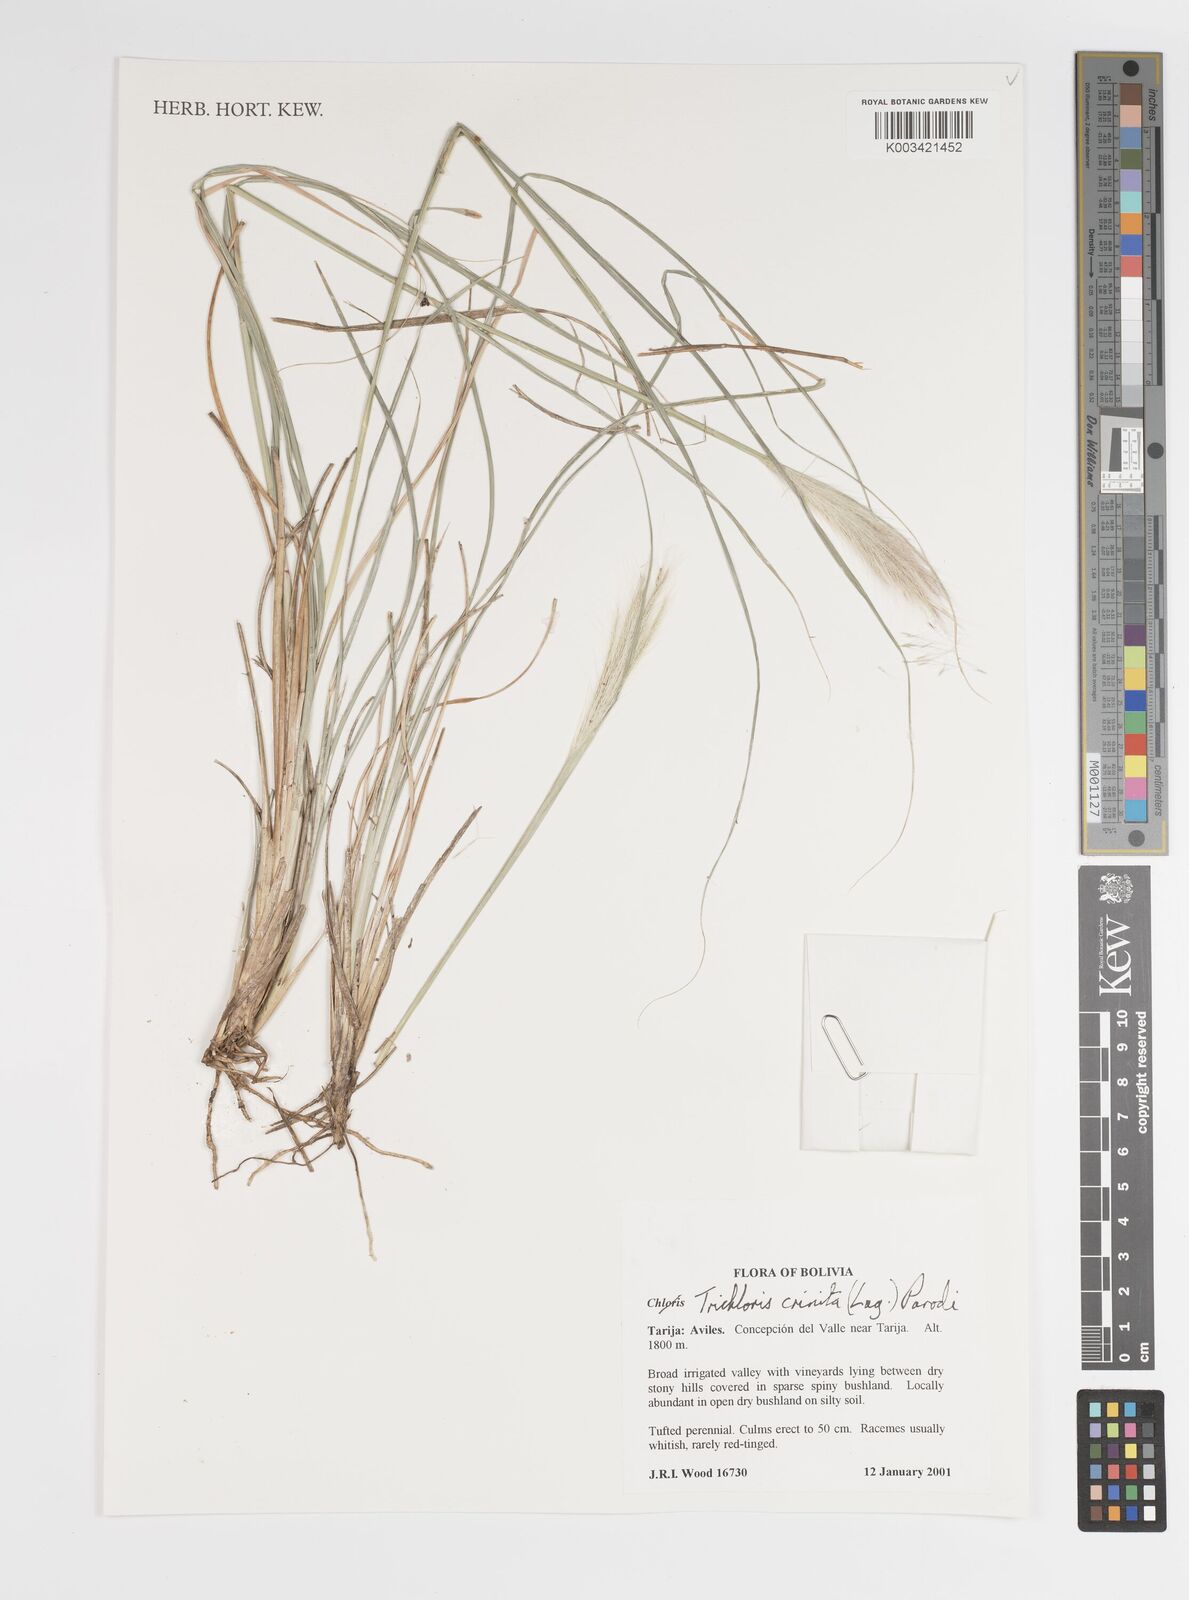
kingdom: Plantae
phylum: Tracheophyta
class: Liliopsida
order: Poales
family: Poaceae
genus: Leptochloa
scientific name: Leptochloa crinita
